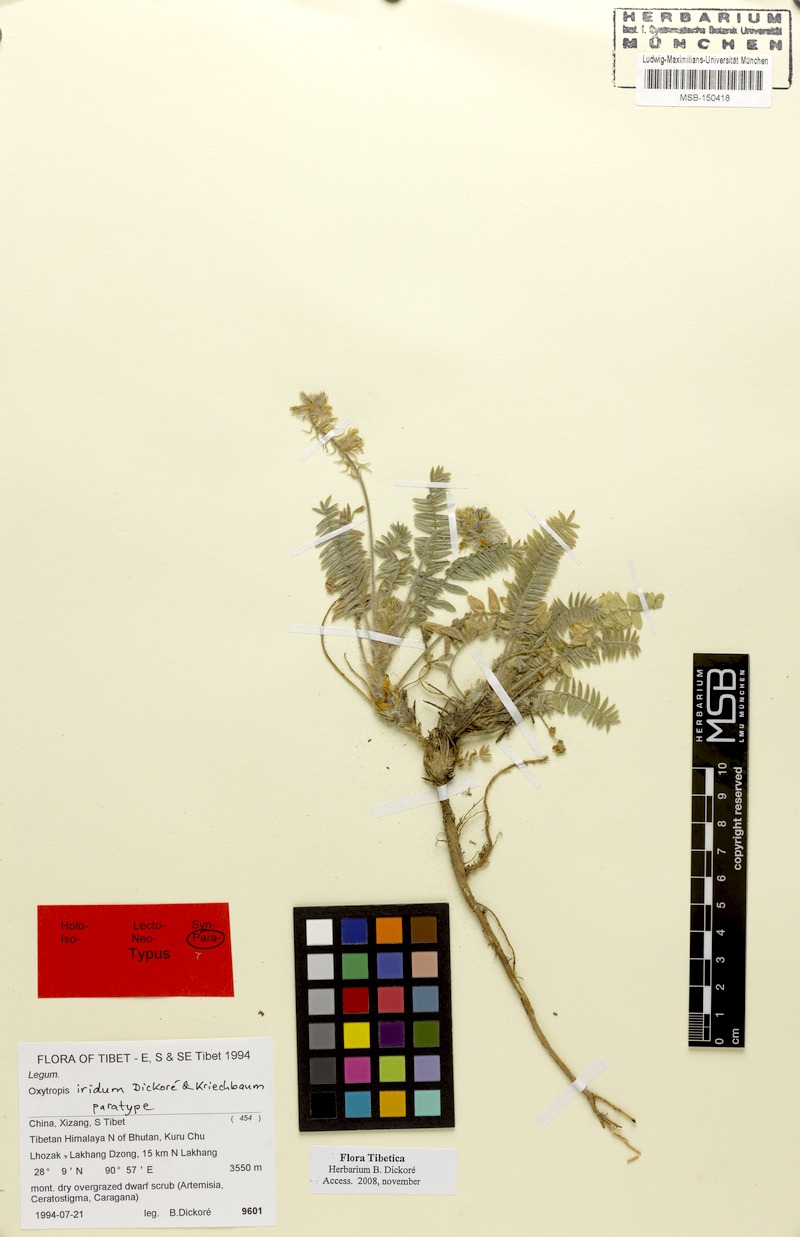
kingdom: Plantae
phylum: Tracheophyta
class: Magnoliopsida
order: Fabales
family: Fabaceae
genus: Oxytropis
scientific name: Oxytropis mollis
